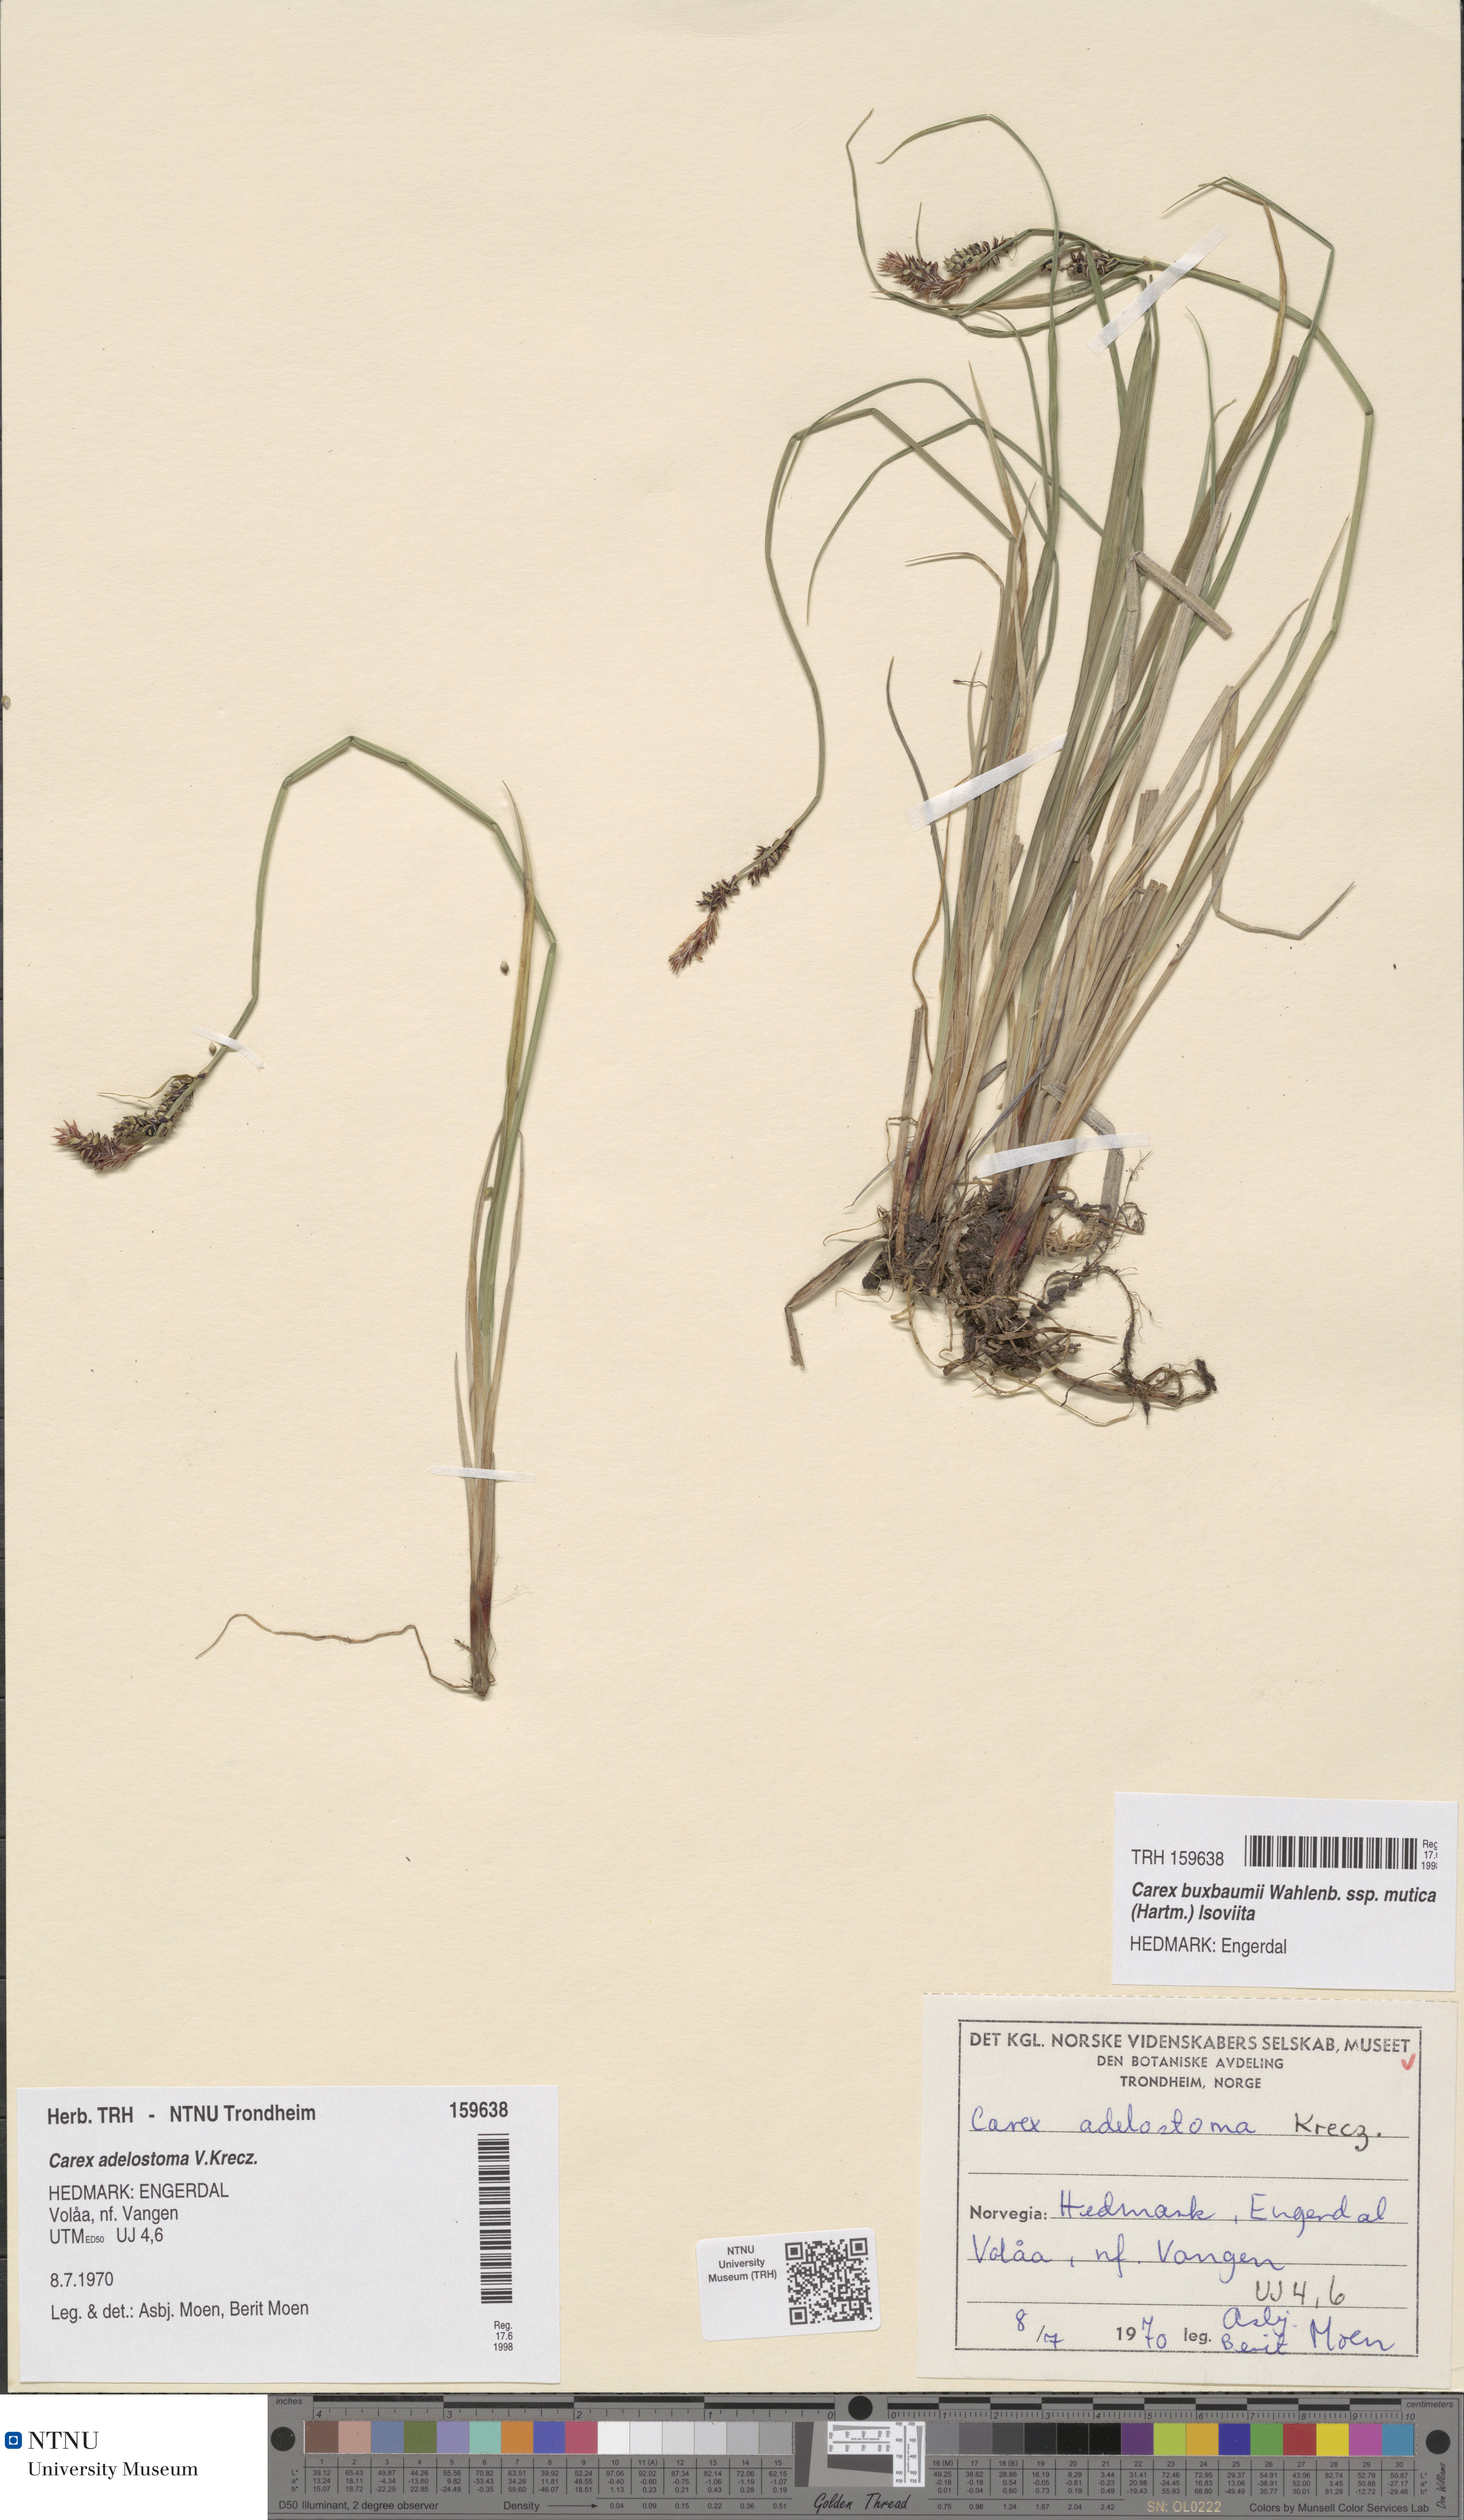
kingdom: Plantae
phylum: Tracheophyta
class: Liliopsida
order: Poales
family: Cyperaceae
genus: Carex
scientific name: Carex adelostoma
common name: Circumpolar sedge
